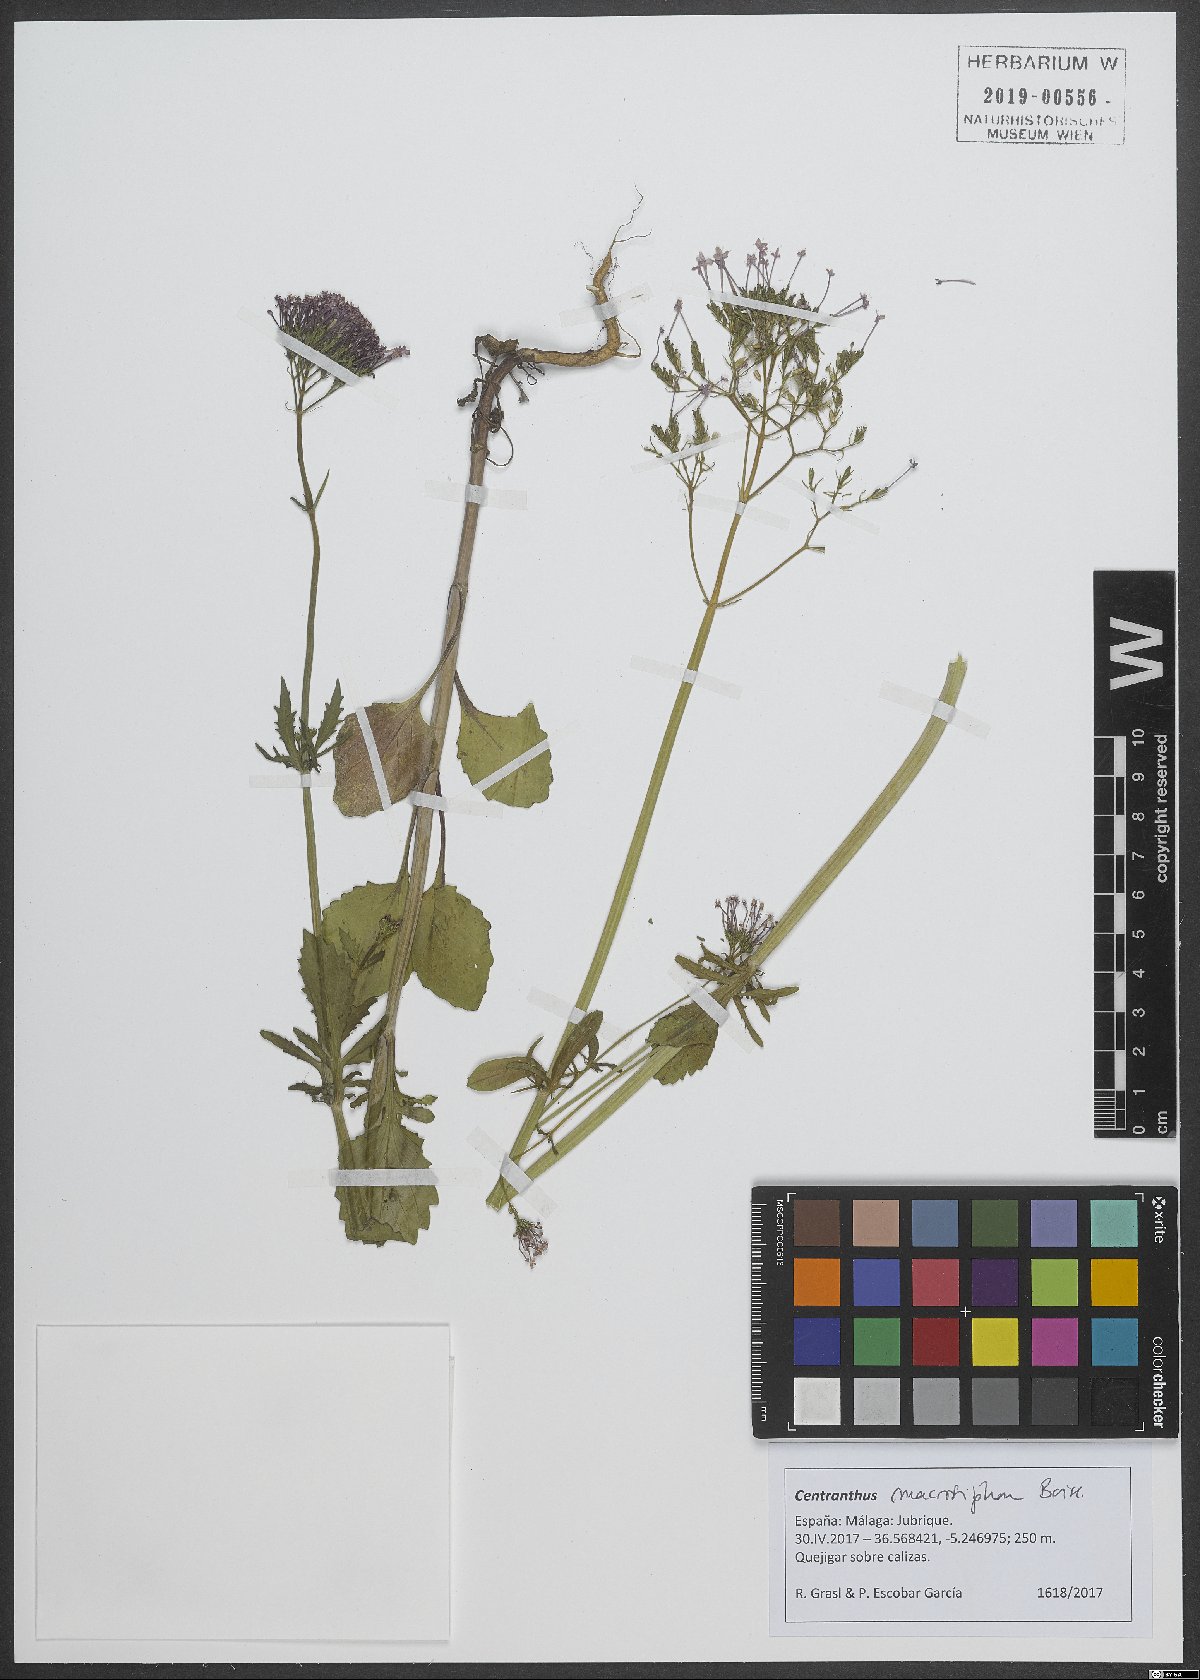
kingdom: Plantae
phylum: Tracheophyta
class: Magnoliopsida
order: Dipsacales
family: Caprifoliaceae
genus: Centranthus
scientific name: Centranthus macrosiphon
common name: Spanish-valerian
